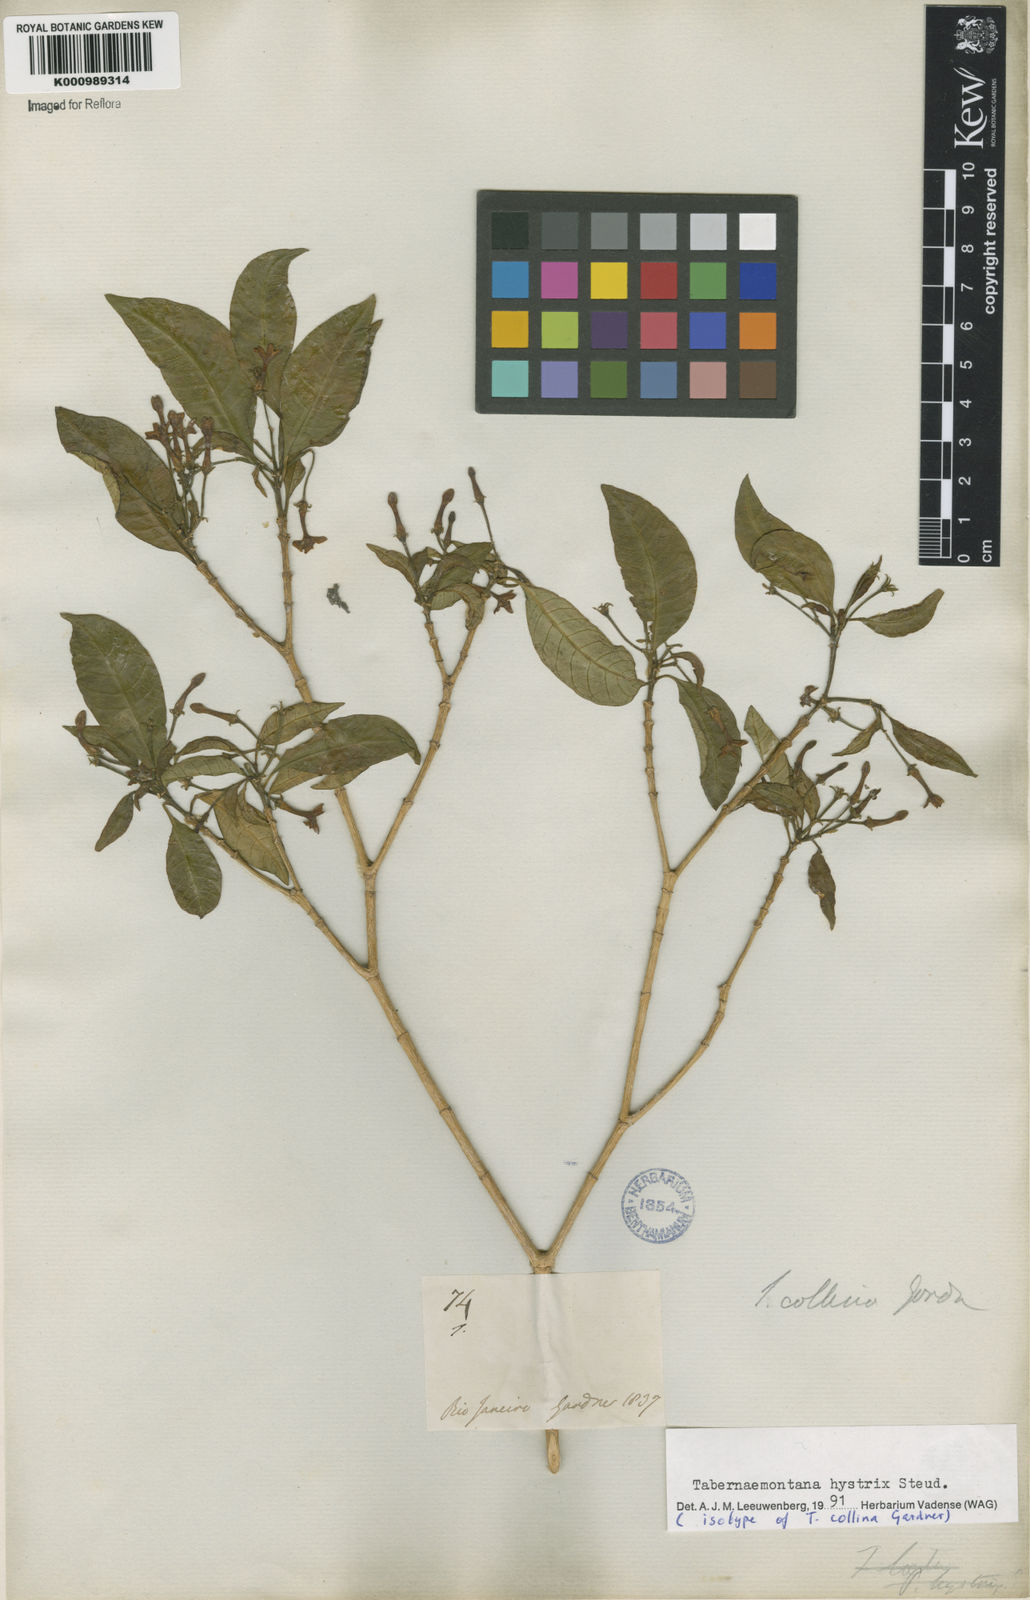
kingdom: Plantae
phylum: Tracheophyta
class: Magnoliopsida
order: Gentianales
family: Apocynaceae
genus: Tabernaemontana
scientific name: Tabernaemontana hystrix
